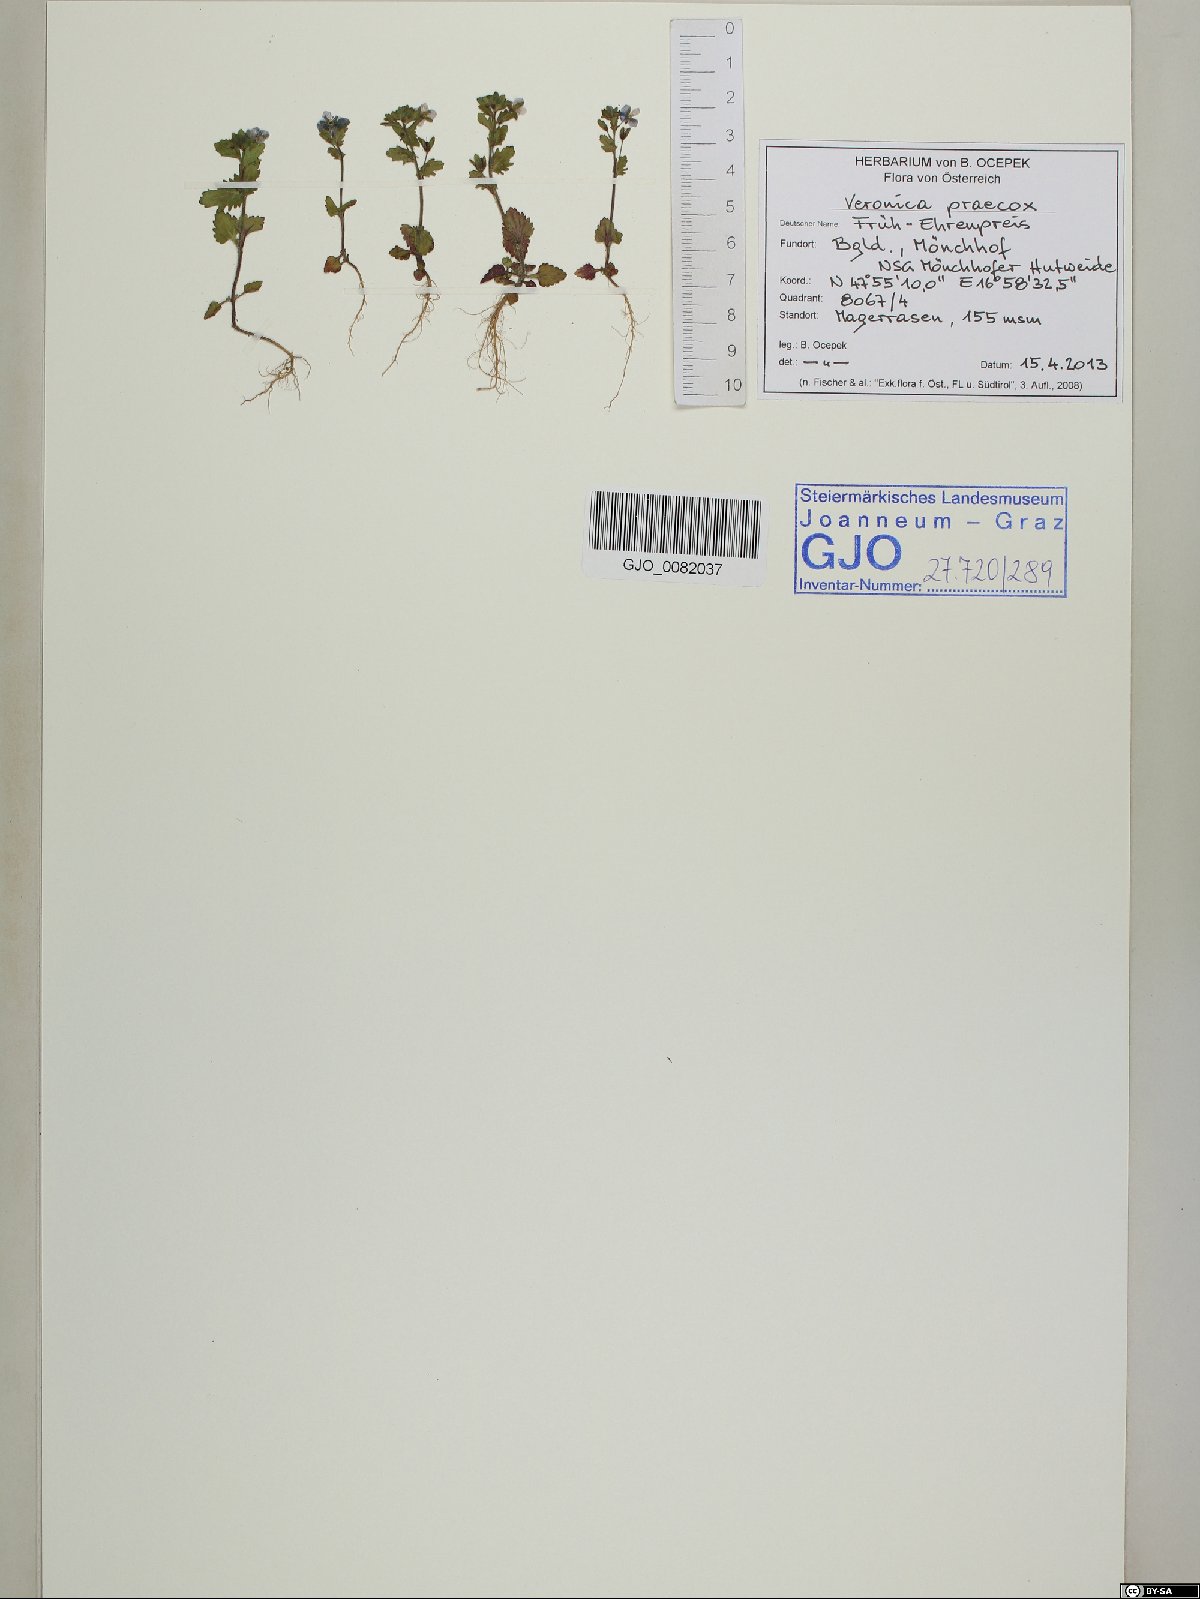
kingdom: Plantae
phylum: Tracheophyta
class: Magnoliopsida
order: Lamiales
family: Plantaginaceae
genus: Veronica
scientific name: Veronica praecox
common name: Breckland speedwell
